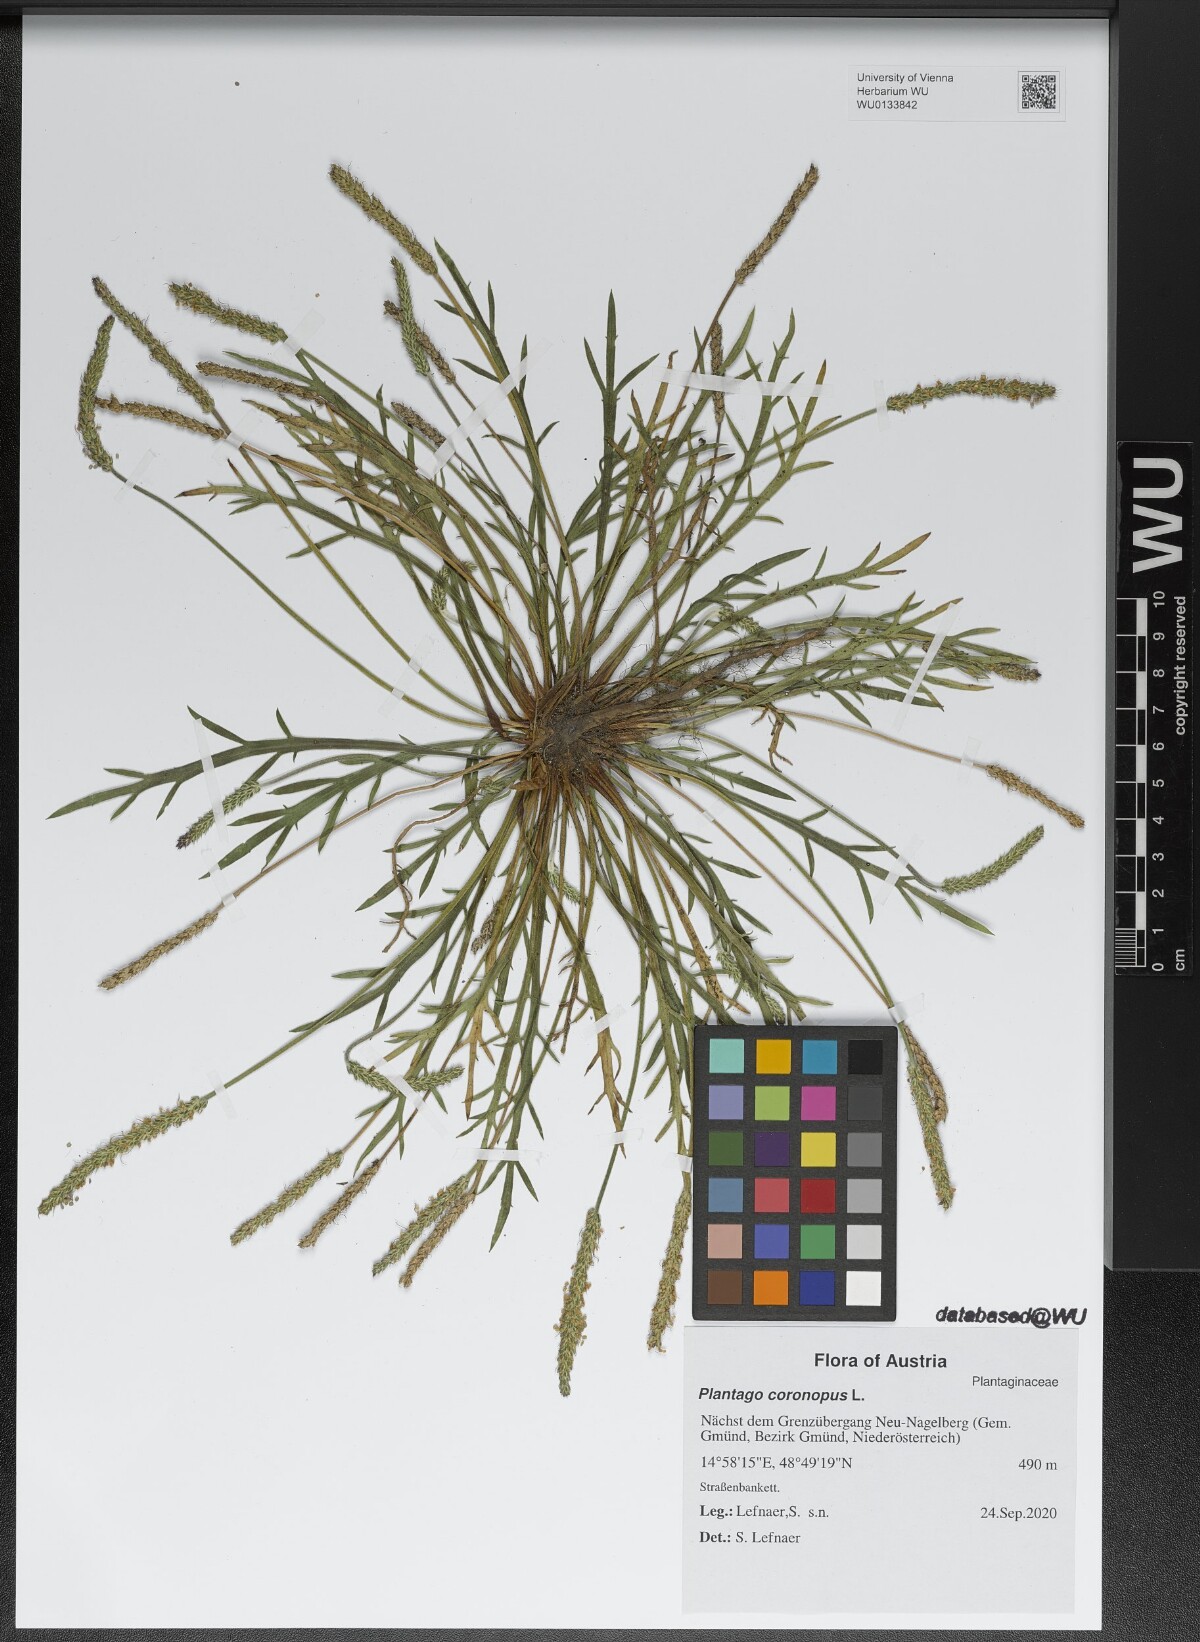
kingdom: Plantae
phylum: Tracheophyta
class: Magnoliopsida
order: Lamiales
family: Plantaginaceae
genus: Plantago
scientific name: Plantago coronopus
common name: Buck's-horn plantain
